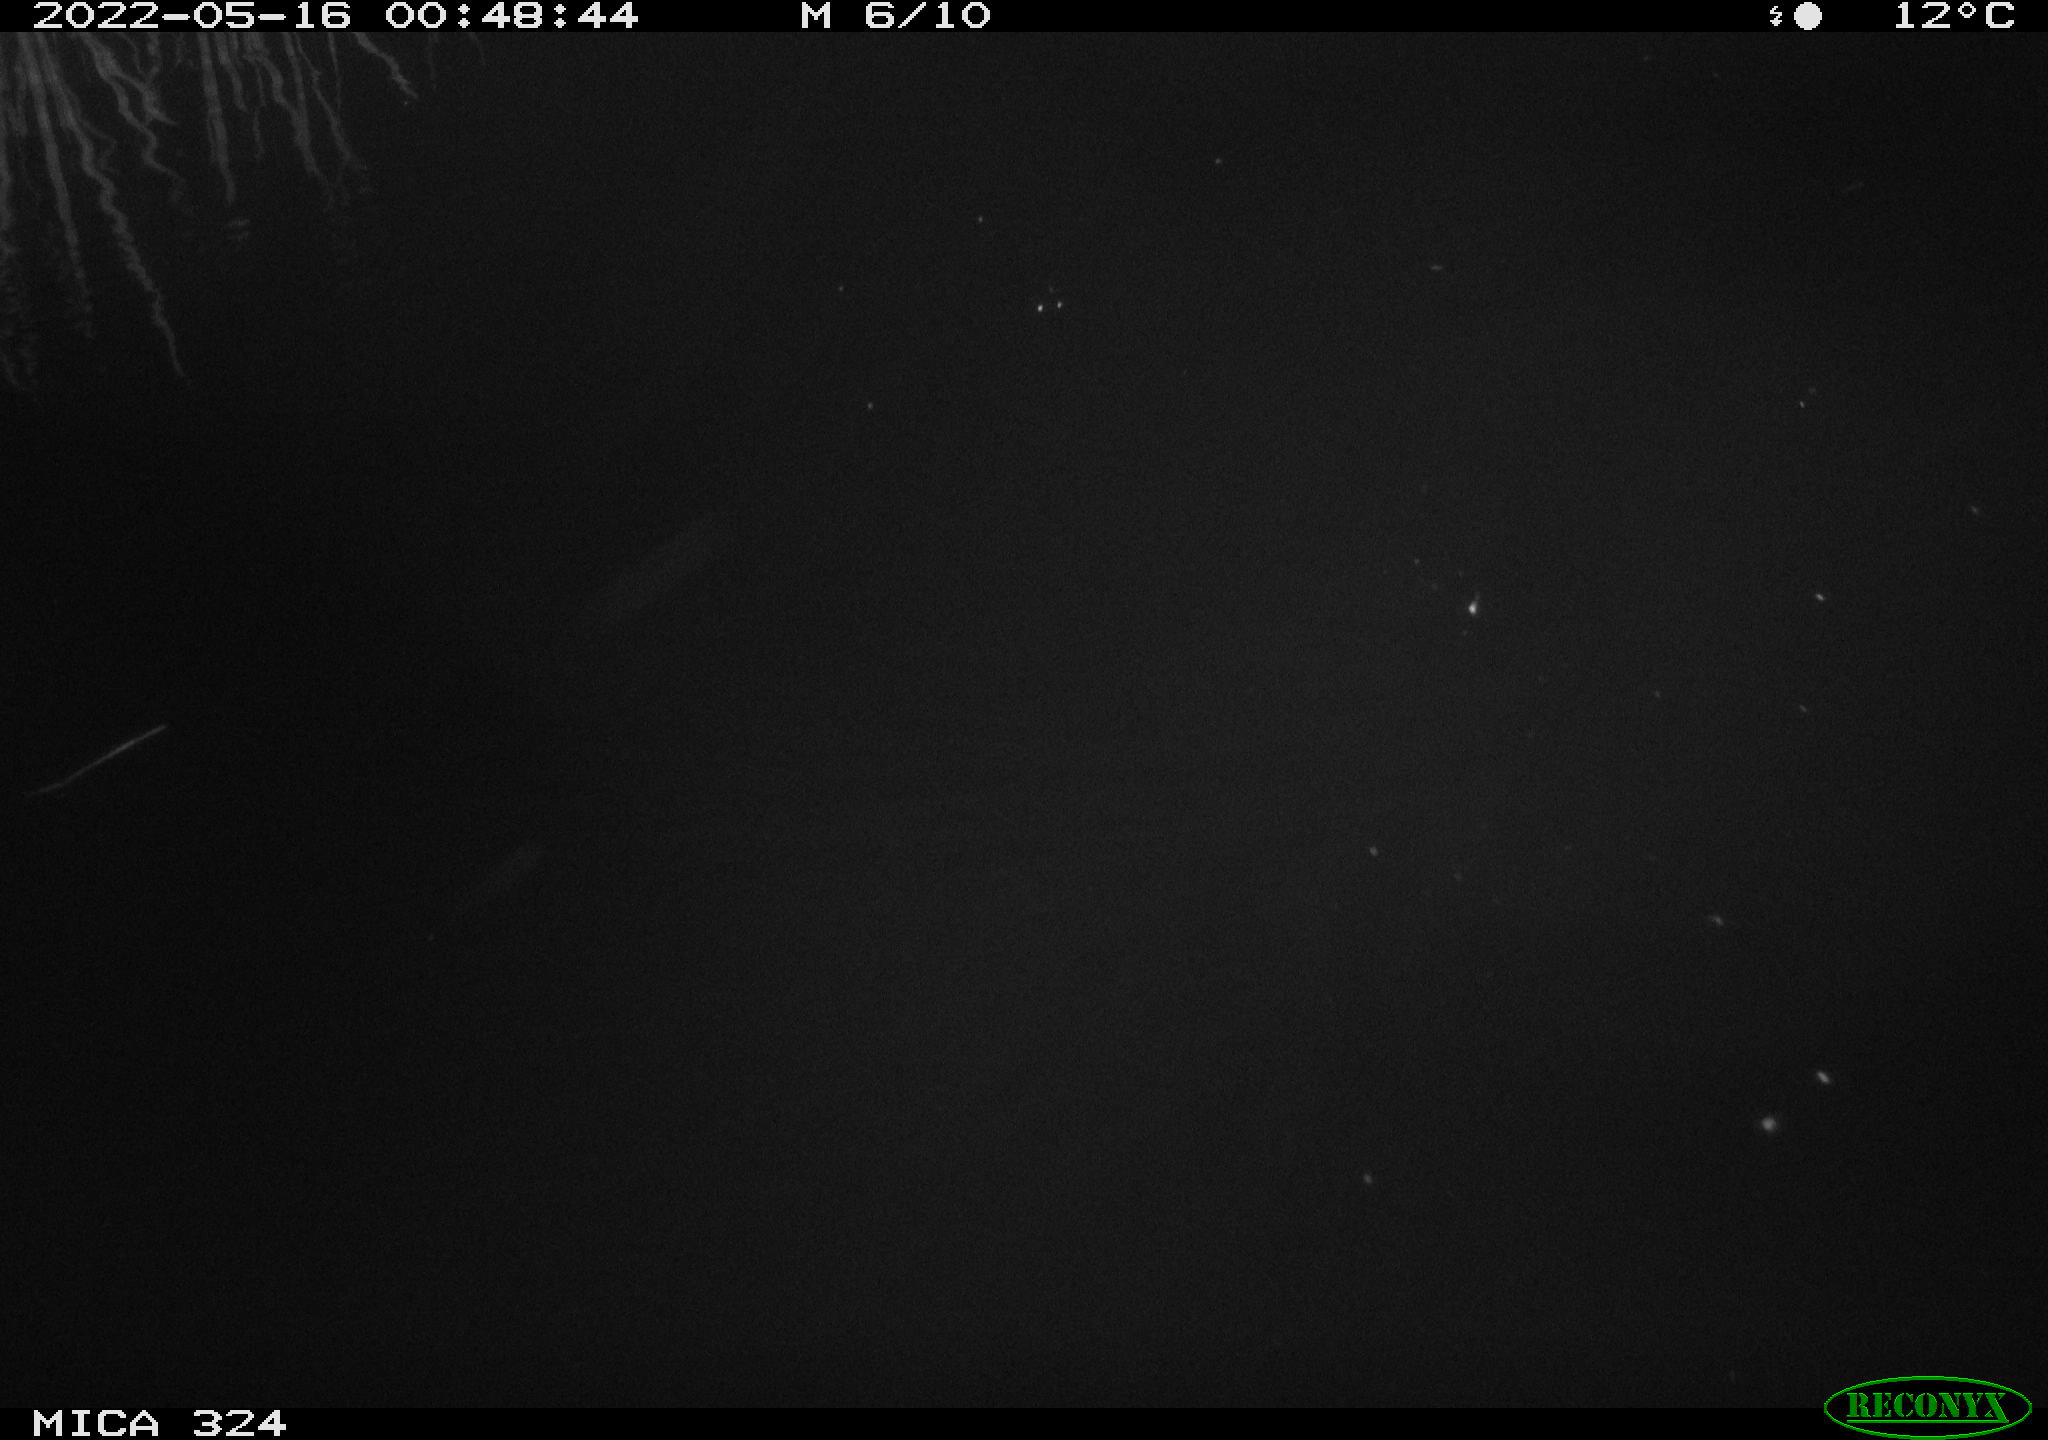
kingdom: Animalia
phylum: Chordata
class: Mammalia
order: Rodentia
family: Cricetidae
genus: Ondatra
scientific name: Ondatra zibethicus
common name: Muskrat
